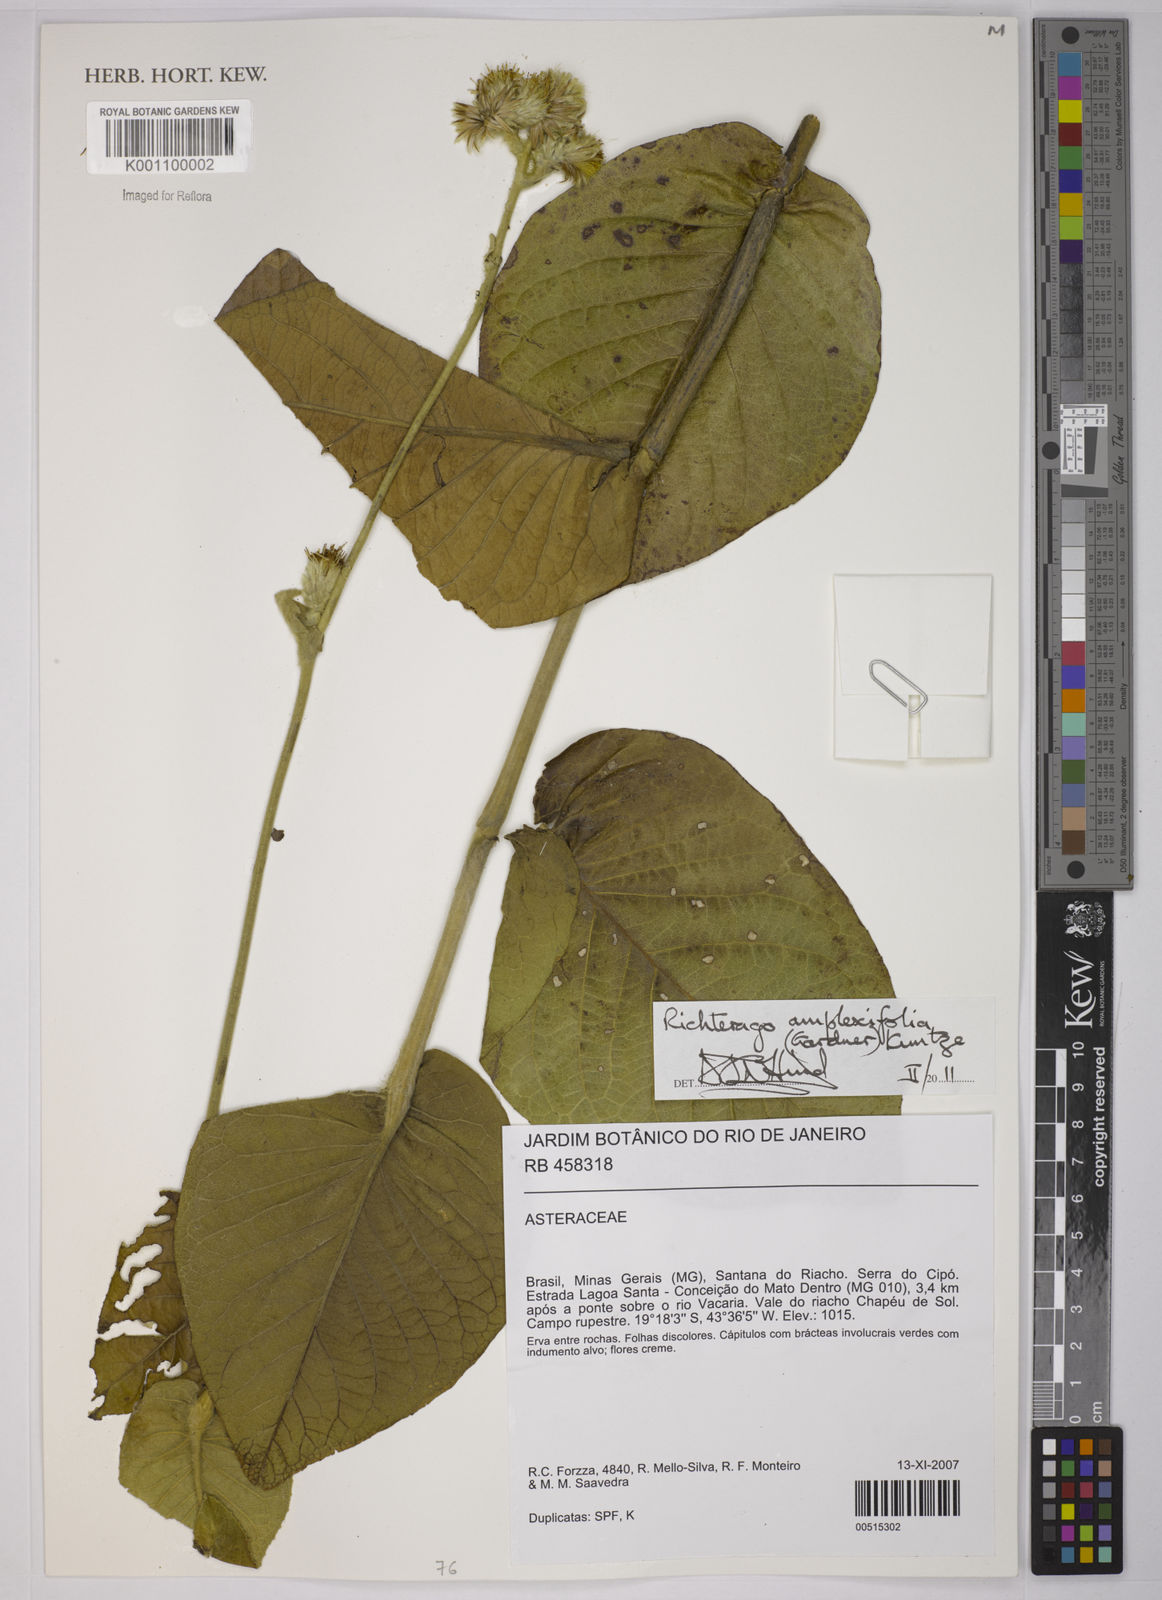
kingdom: Plantae
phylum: Tracheophyta
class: Magnoliopsida
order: Asterales
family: Asteraceae
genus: Richterago
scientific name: Richterago amplexifolia
